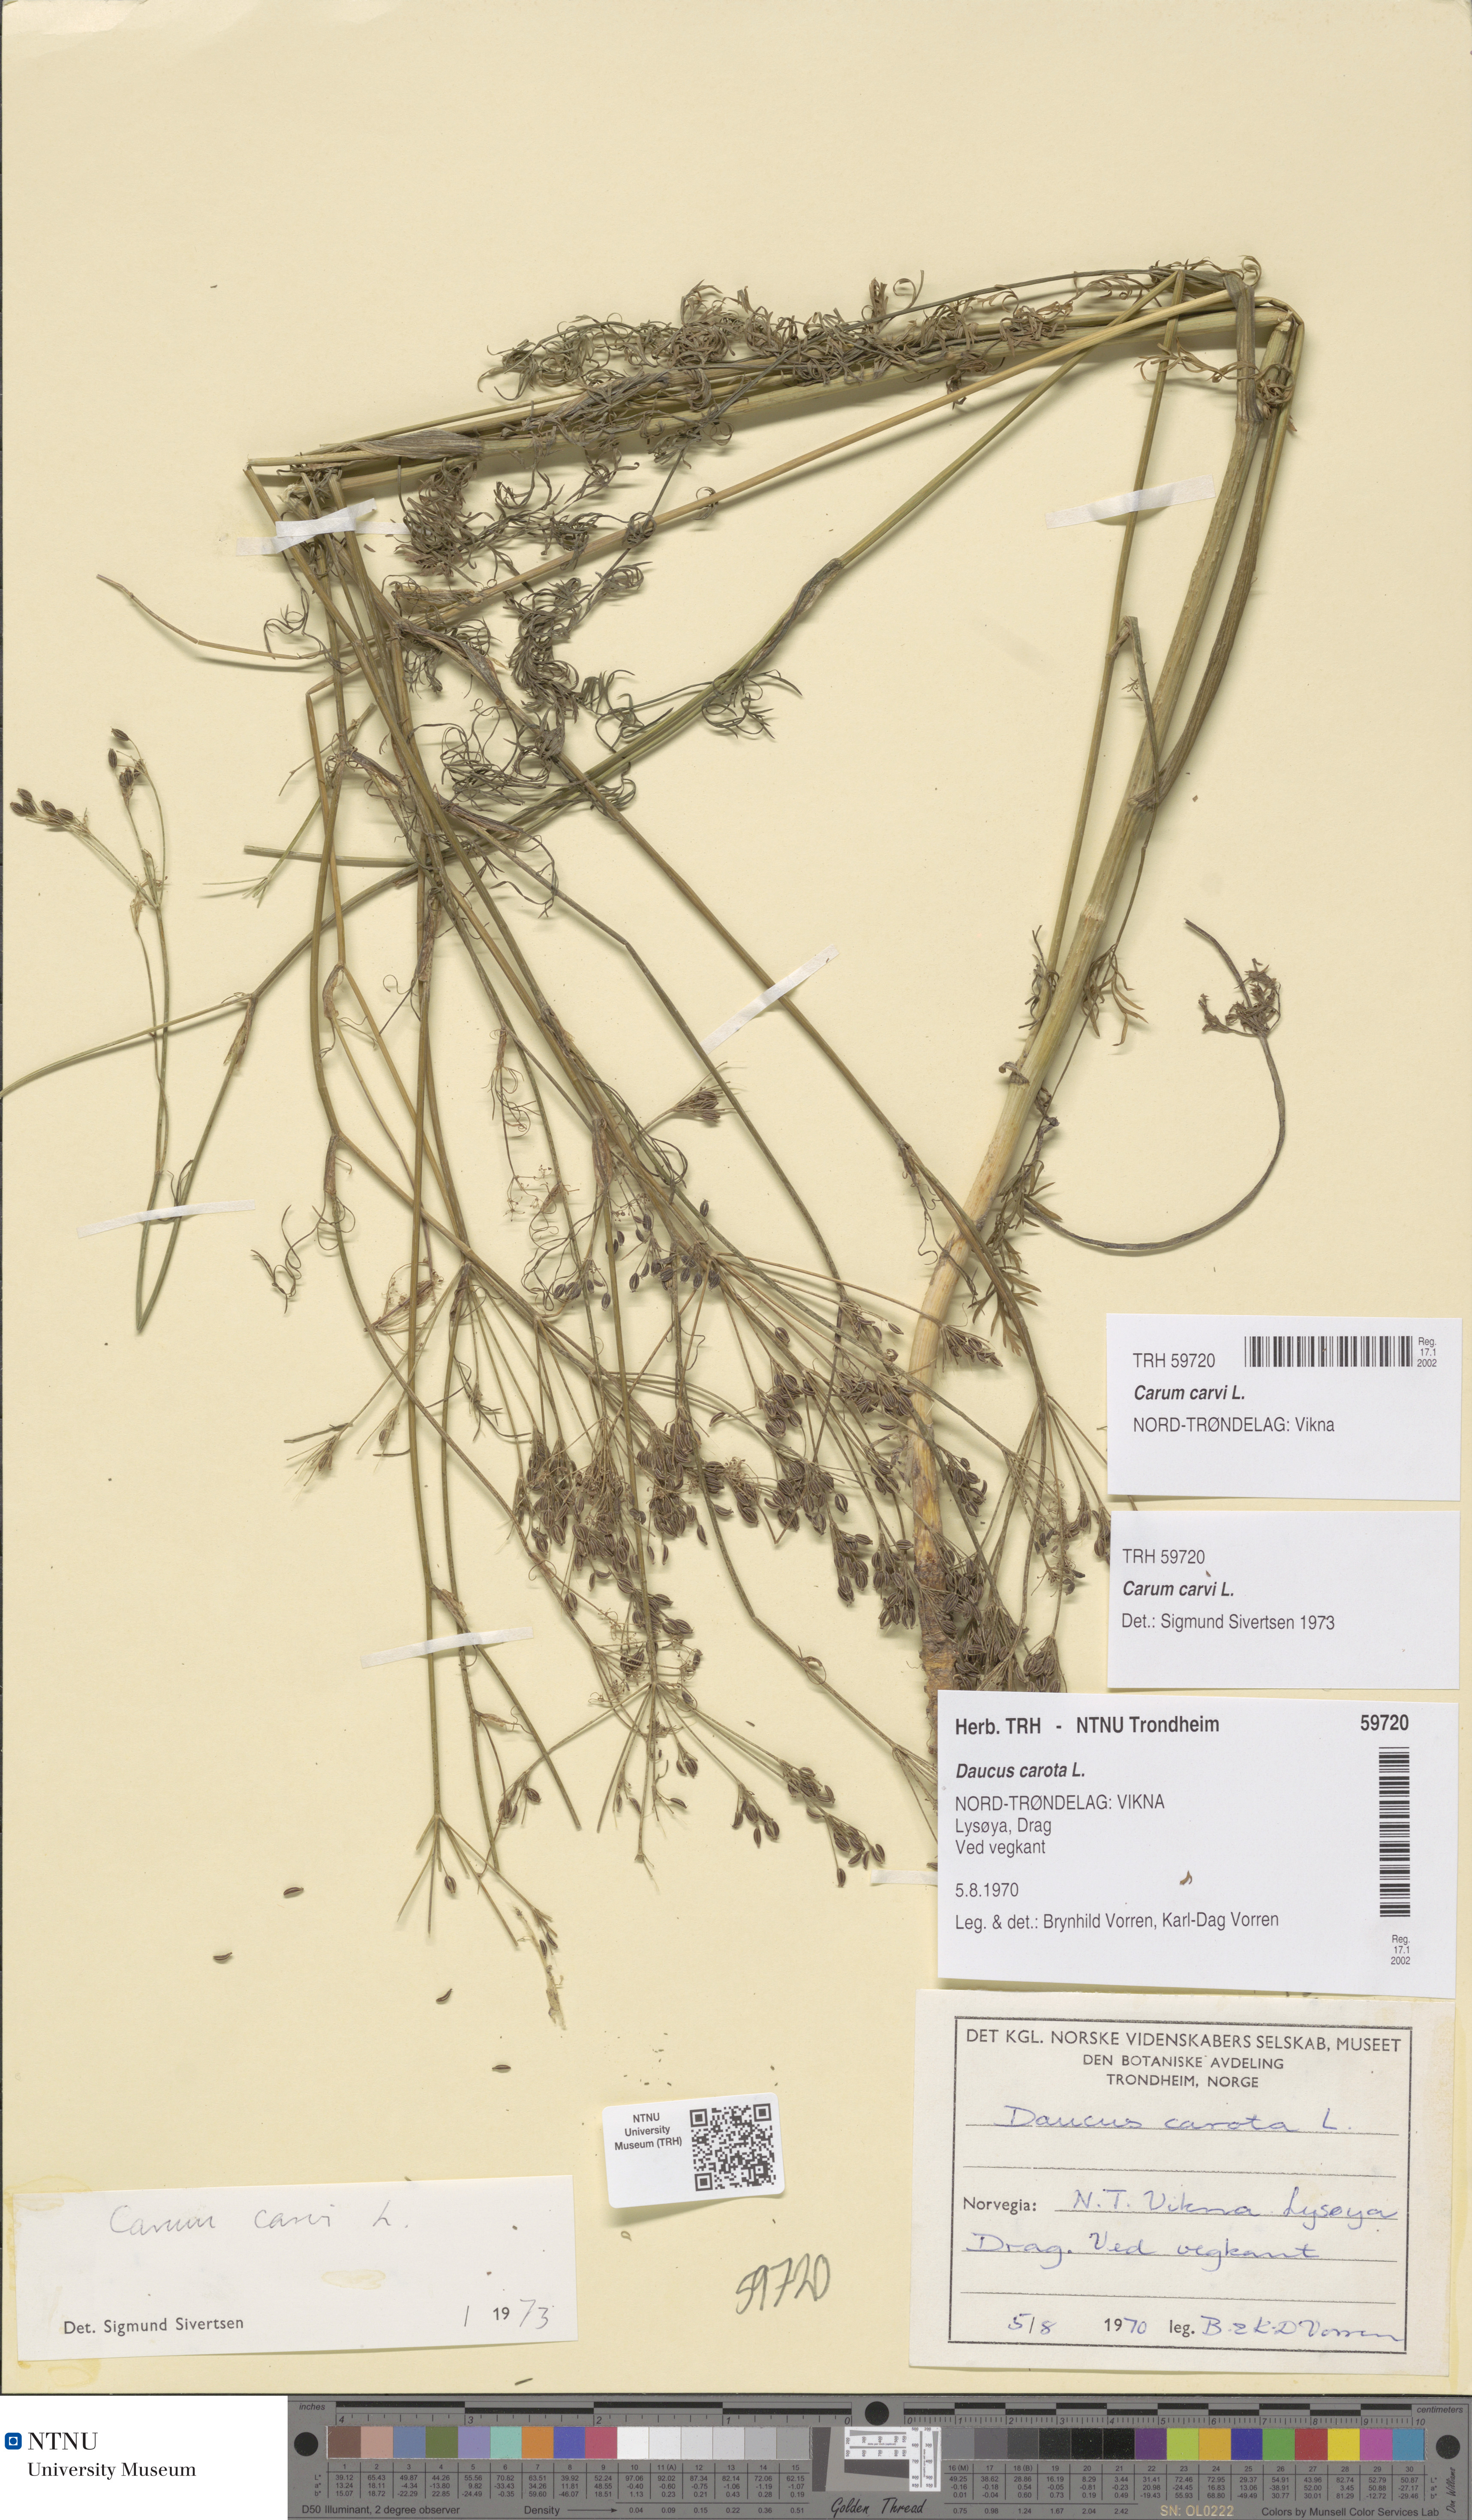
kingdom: Plantae
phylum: Tracheophyta
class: Magnoliopsida
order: Apiales
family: Apiaceae
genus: Carum
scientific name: Carum carvi
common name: Caraway
